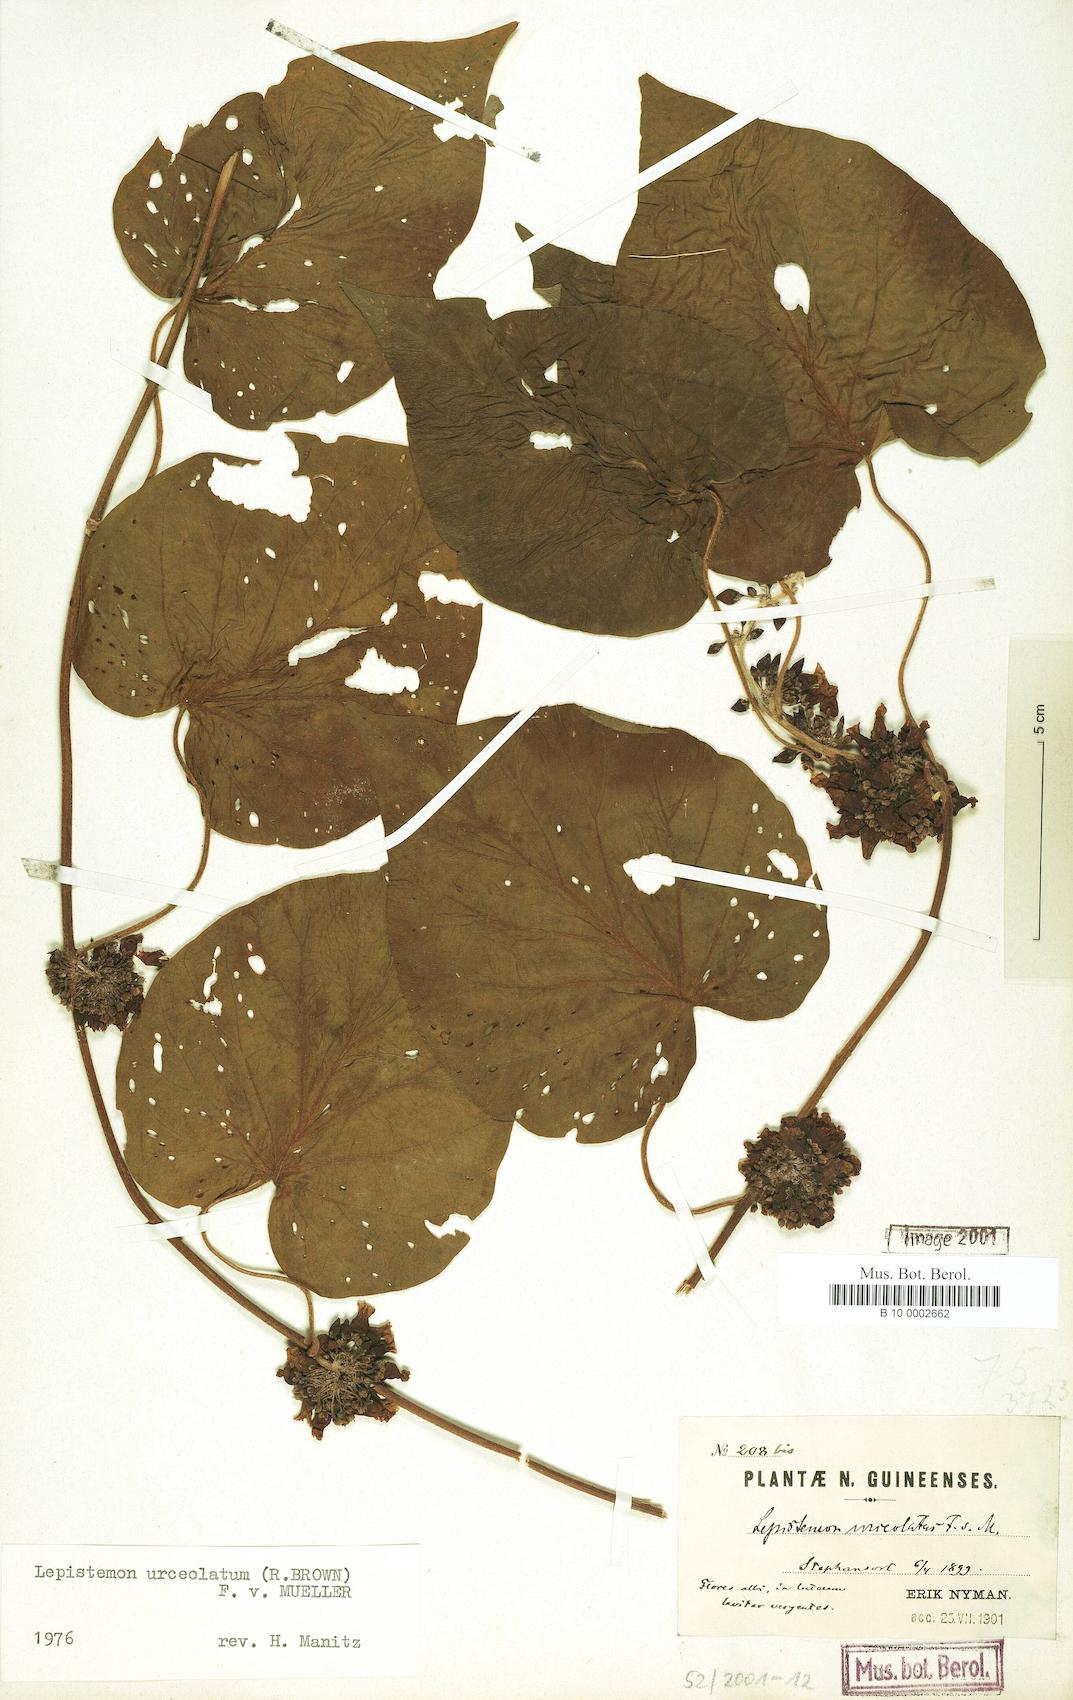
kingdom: Plantae
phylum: Tracheophyta
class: Magnoliopsida
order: Solanales
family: Convolvulaceae
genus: Lepistemon
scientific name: Lepistemon urceolatus
